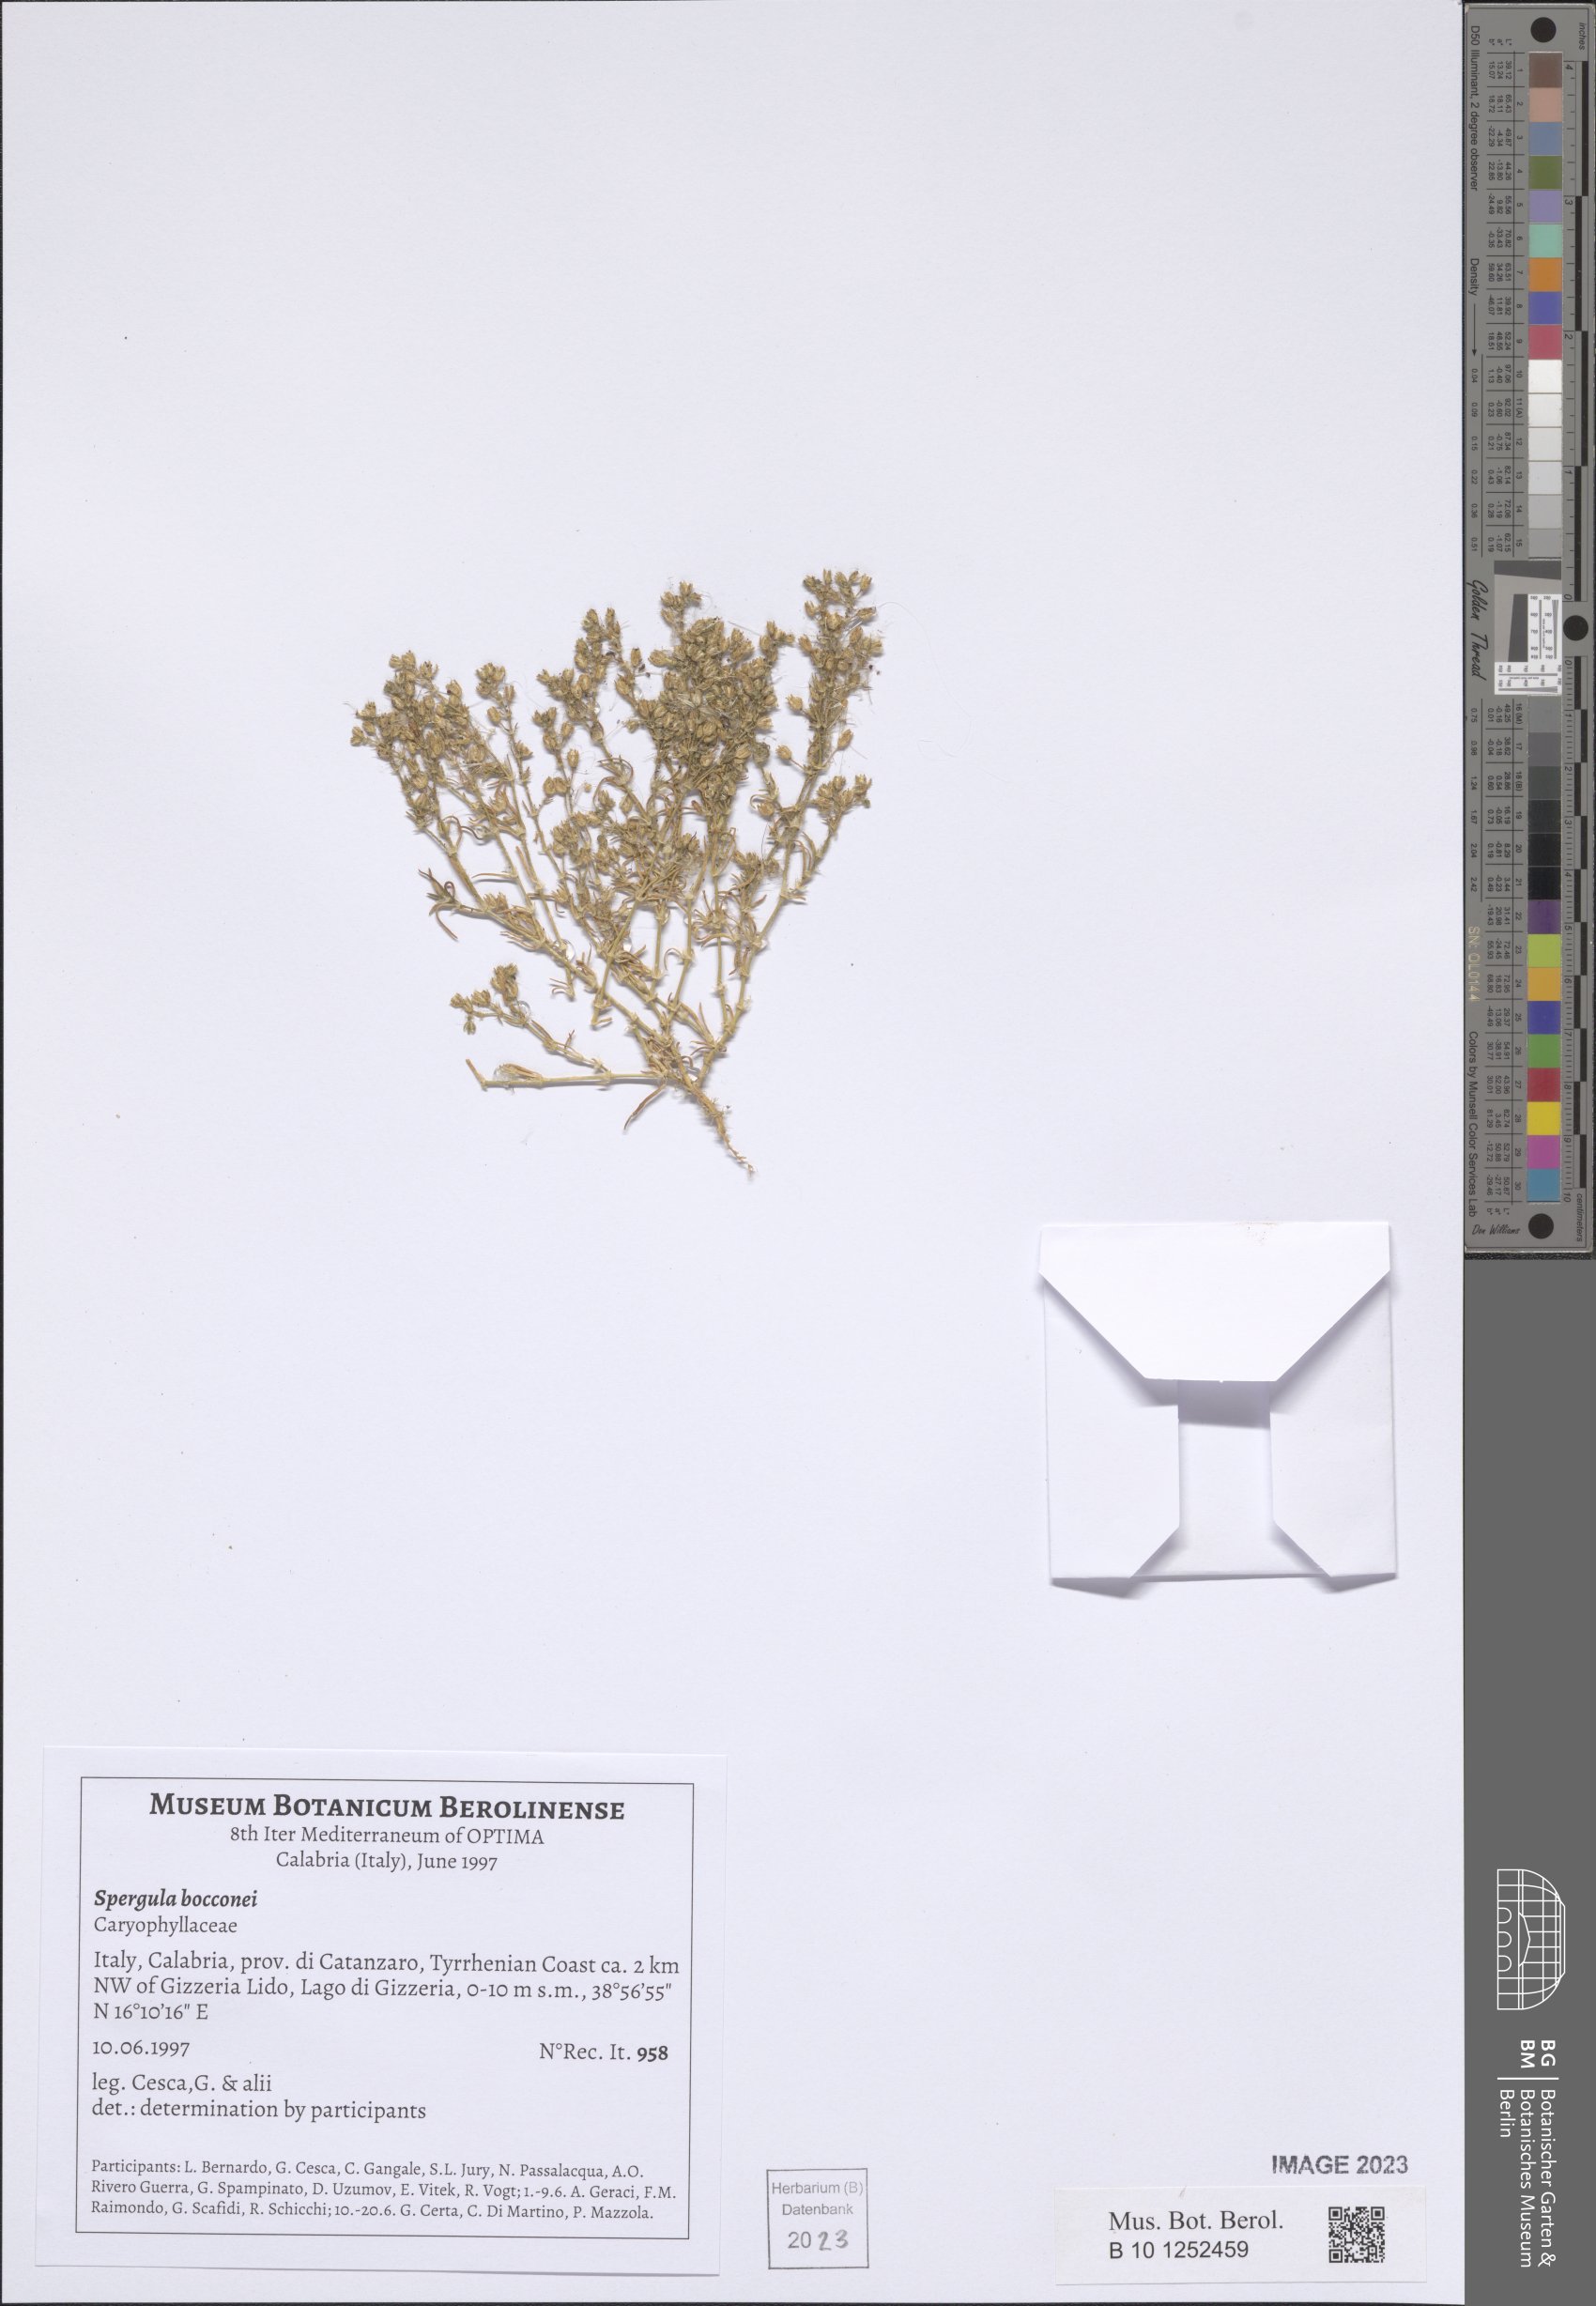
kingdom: Plantae
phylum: Tracheophyta
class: Magnoliopsida
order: Caryophyllales
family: Caryophyllaceae
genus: Spergularia
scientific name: Spergularia bocconei
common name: Greek sea-spurrey
